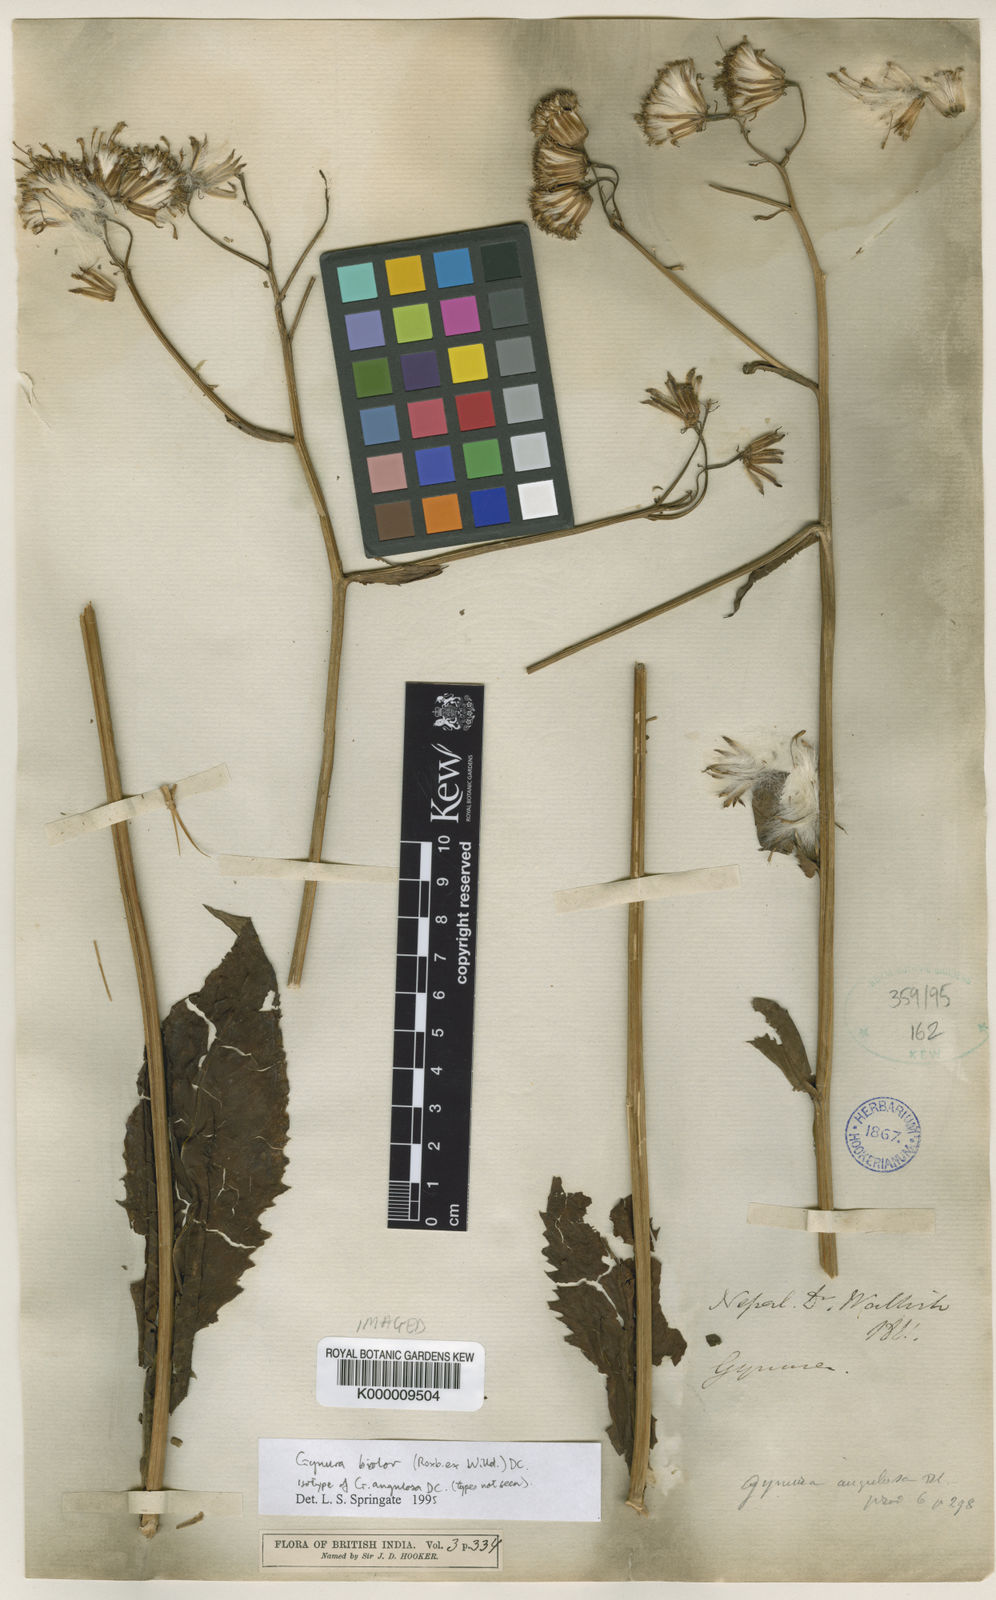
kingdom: Plantae
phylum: Tracheophyta
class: Magnoliopsida
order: Asterales
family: Asteraceae
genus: Gynura
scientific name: Gynura bicolor
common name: Red-vegetable
